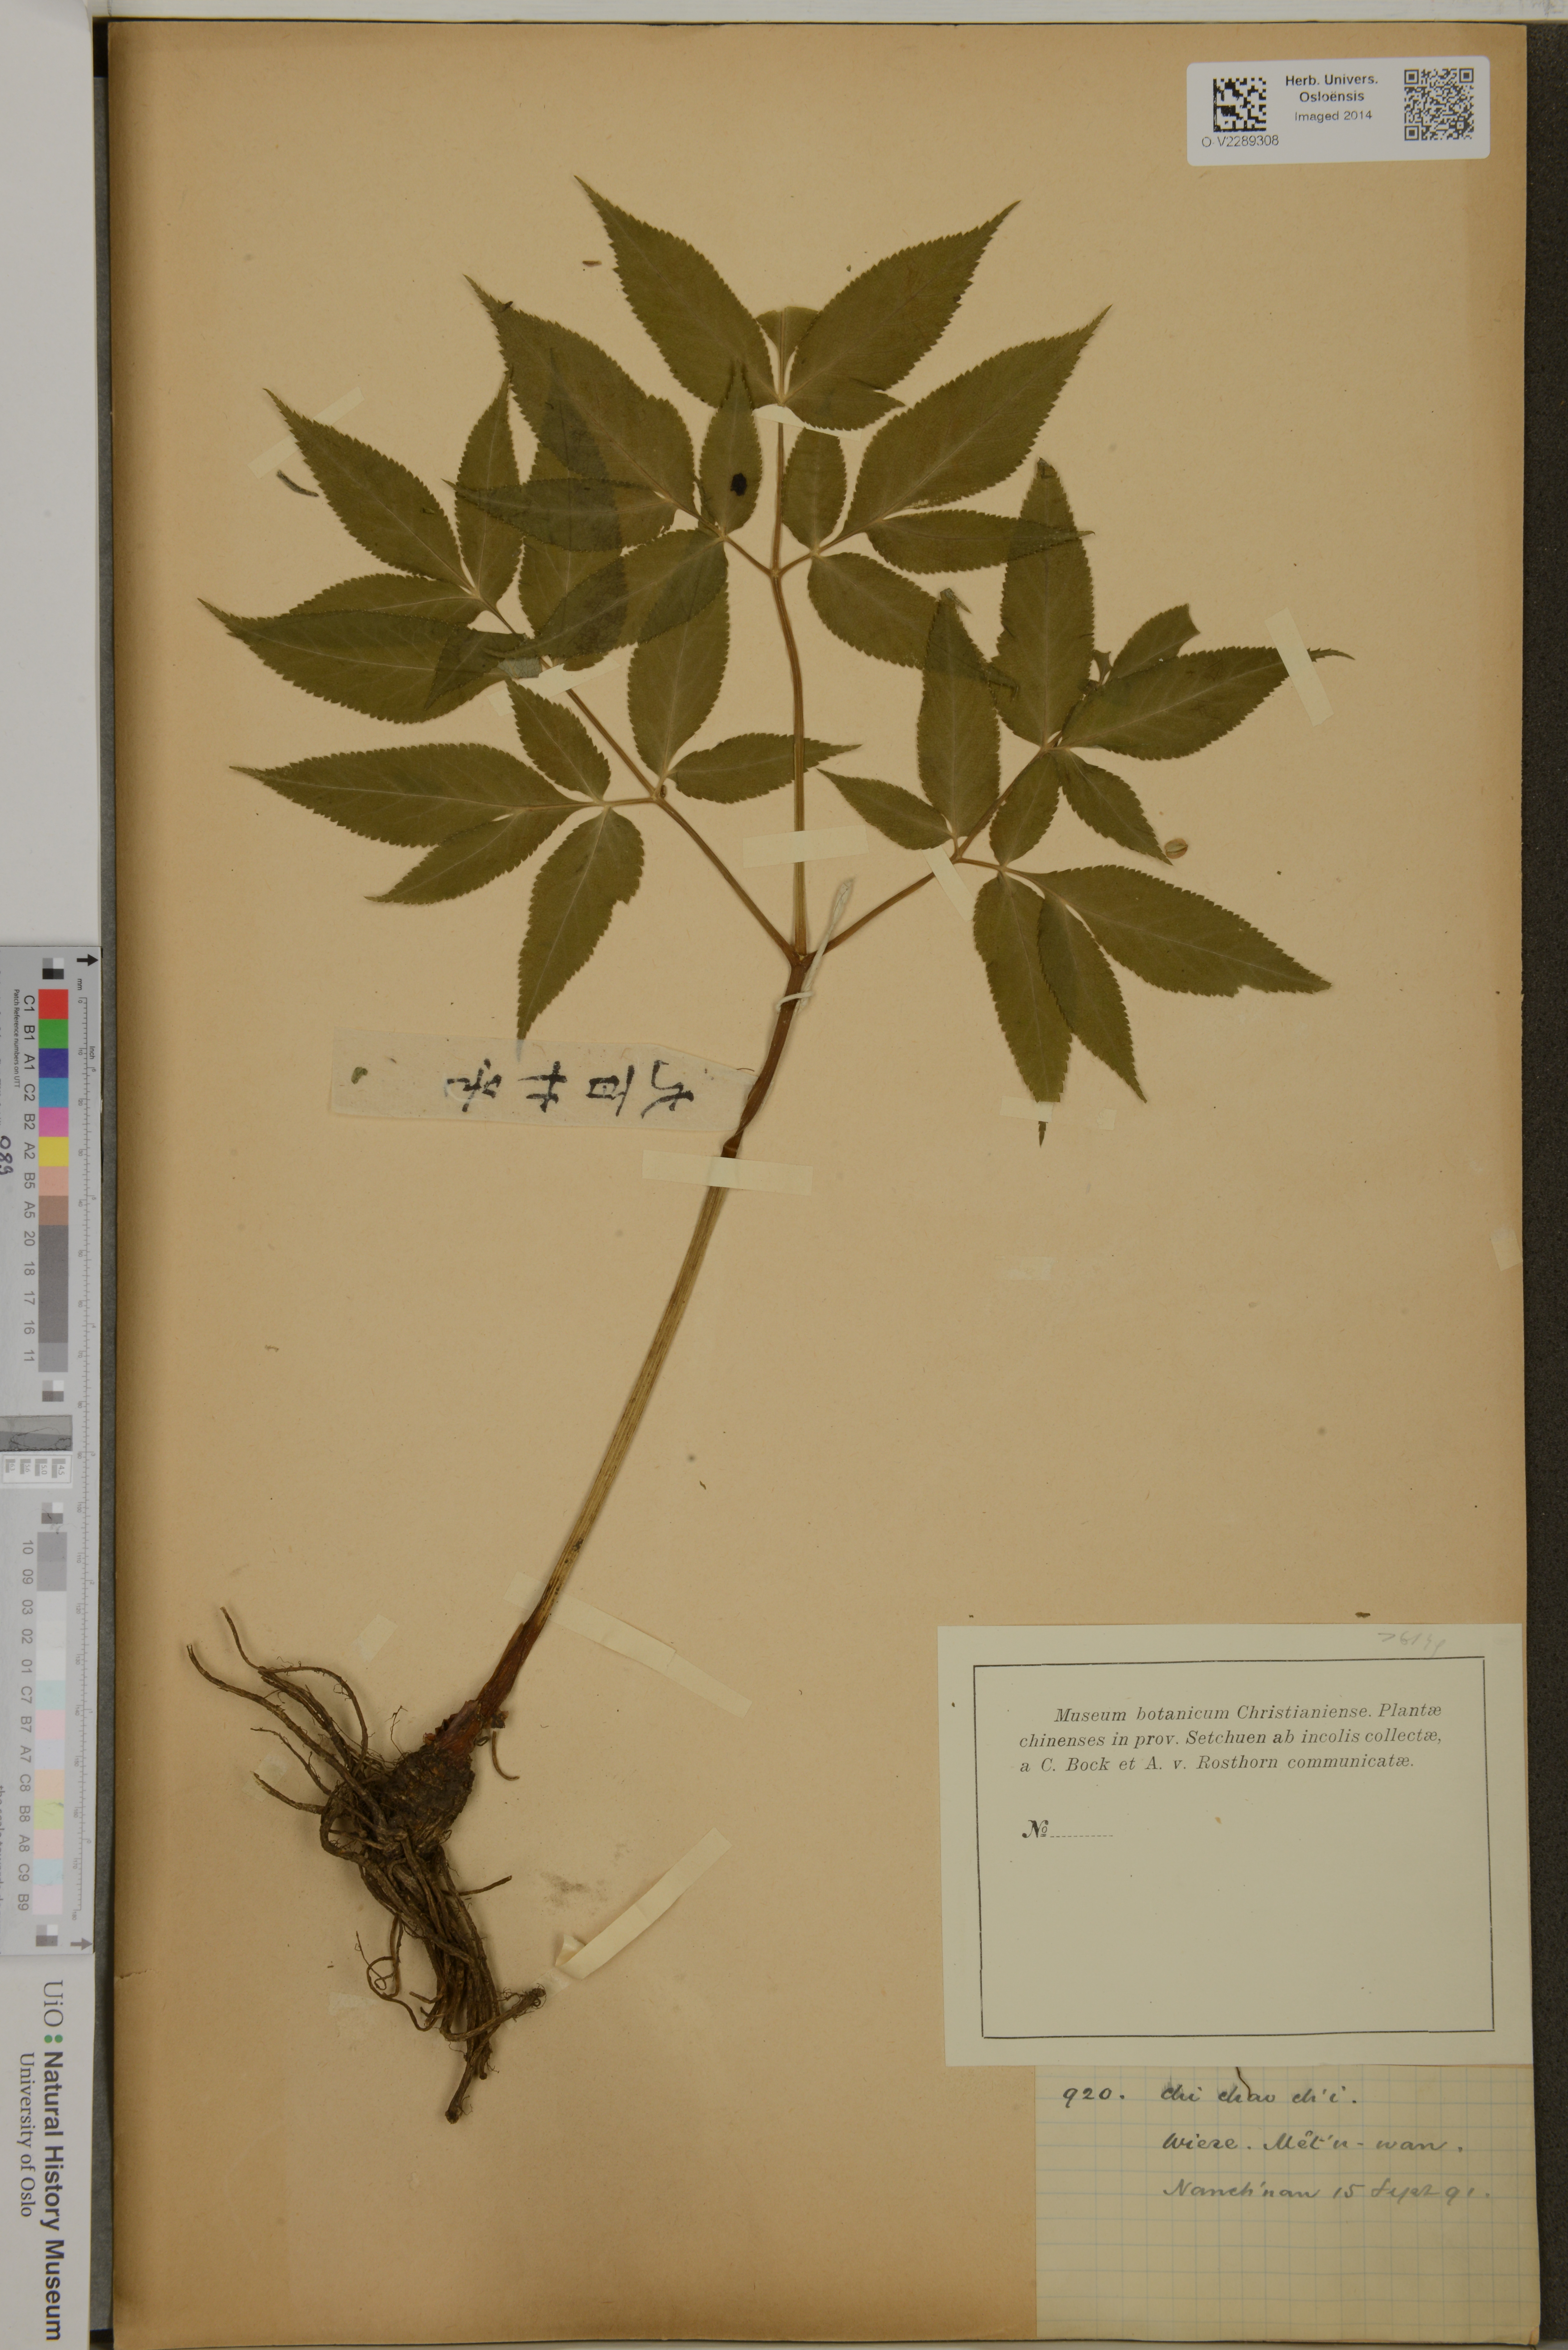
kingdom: Plantae
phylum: Tracheophyta
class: Magnoliopsida
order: Apiales
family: Apiaceae
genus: Zizia
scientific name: Zizia
